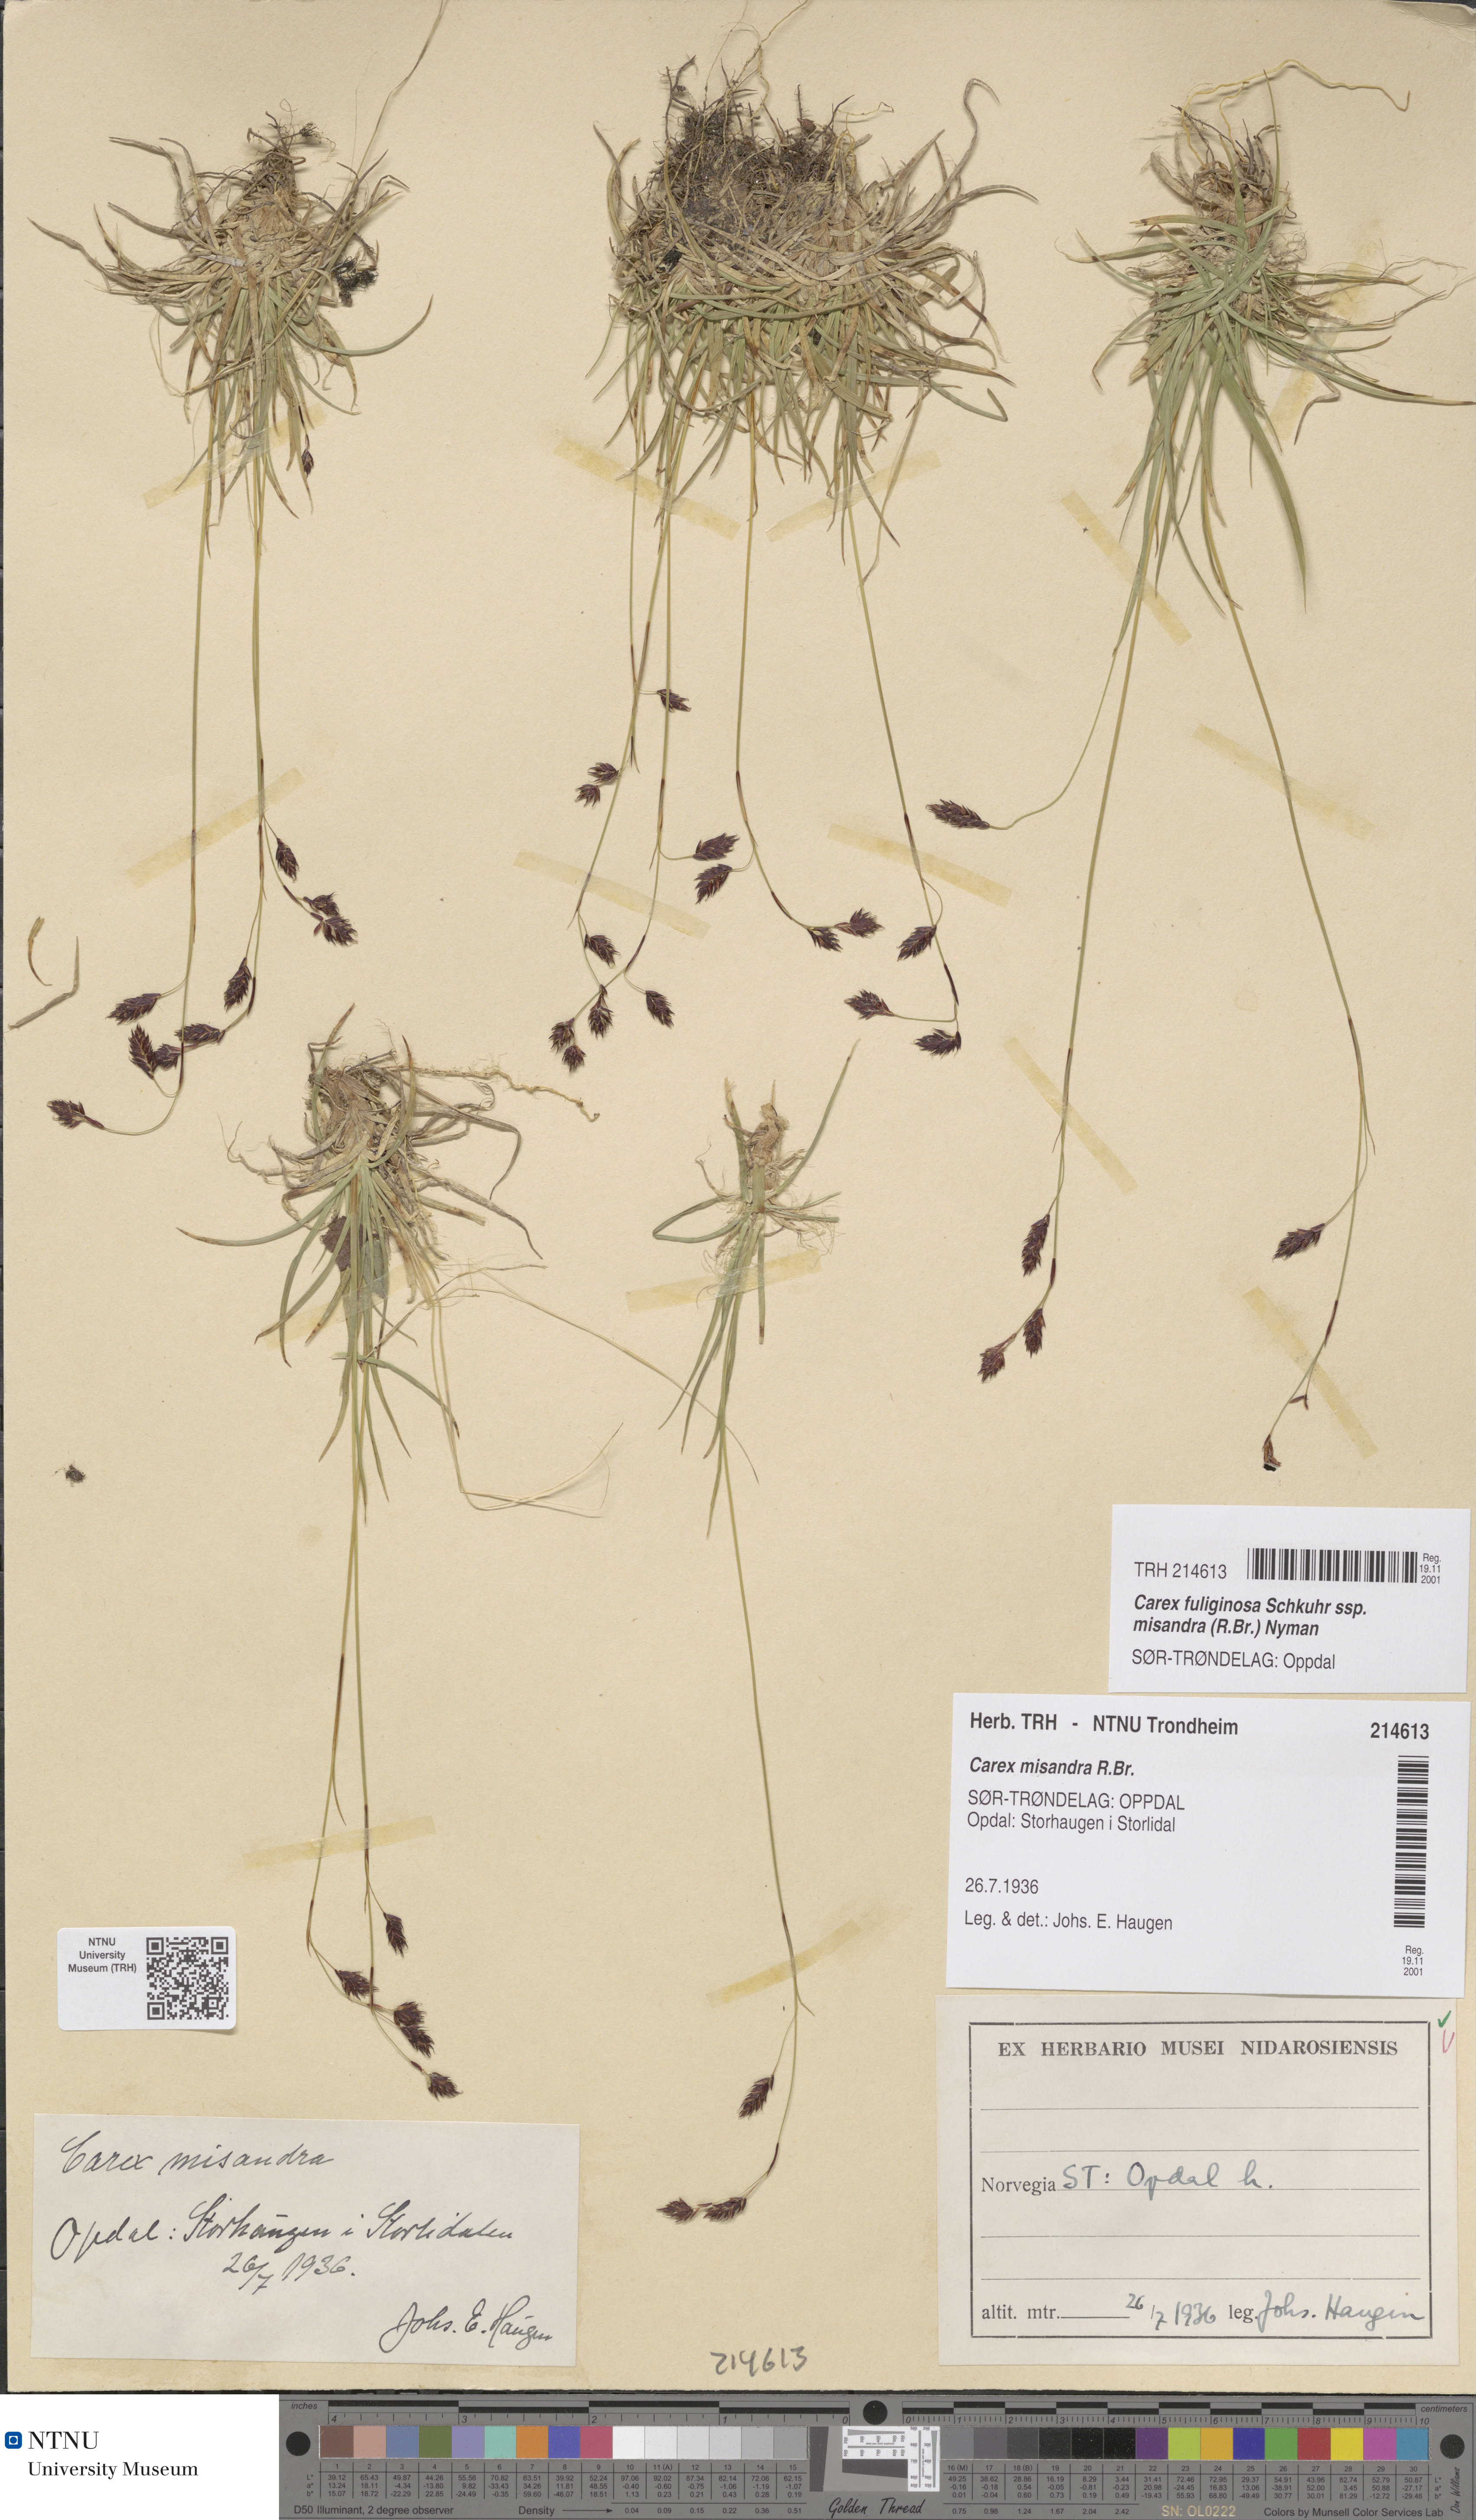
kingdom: Plantae
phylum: Tracheophyta
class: Liliopsida
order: Poales
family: Cyperaceae
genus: Carex
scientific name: Carex fuliginosa
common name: Few-flowered sedge
